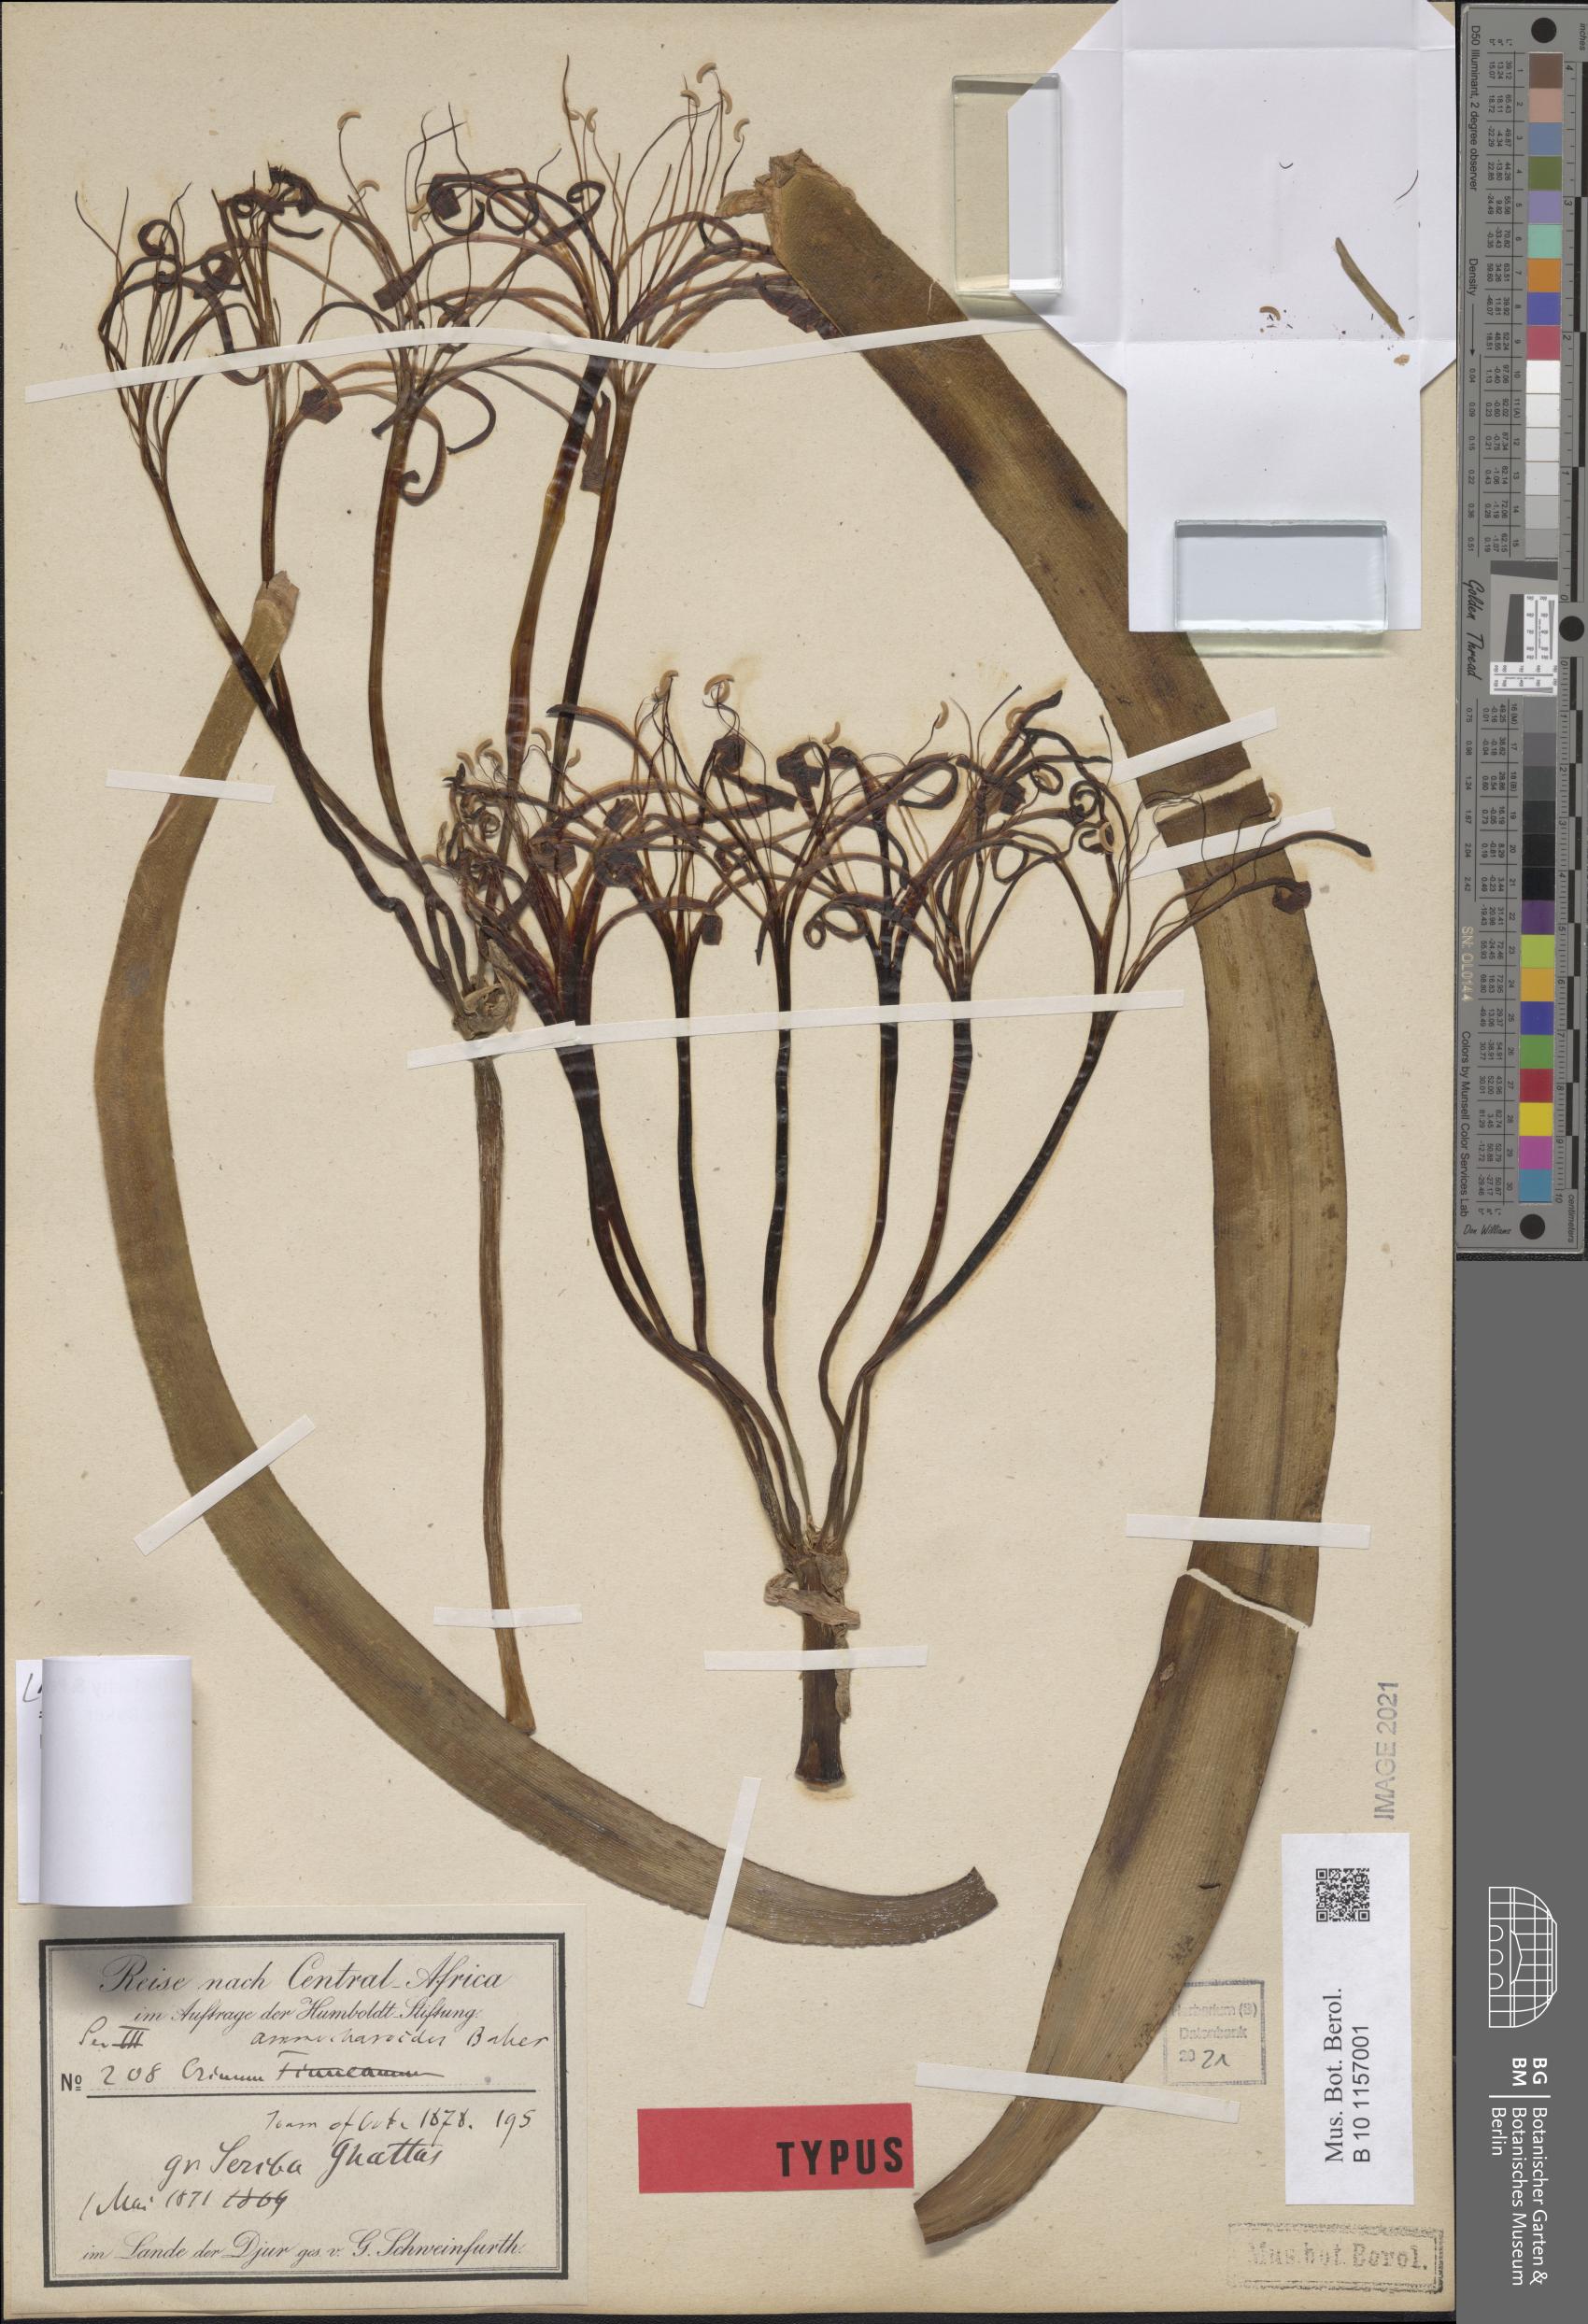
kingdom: Plantae
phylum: Tracheophyta
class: Liliopsida
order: Asparagales
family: Amaryllidaceae
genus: Ammocharis
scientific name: Ammocharis tinneana
